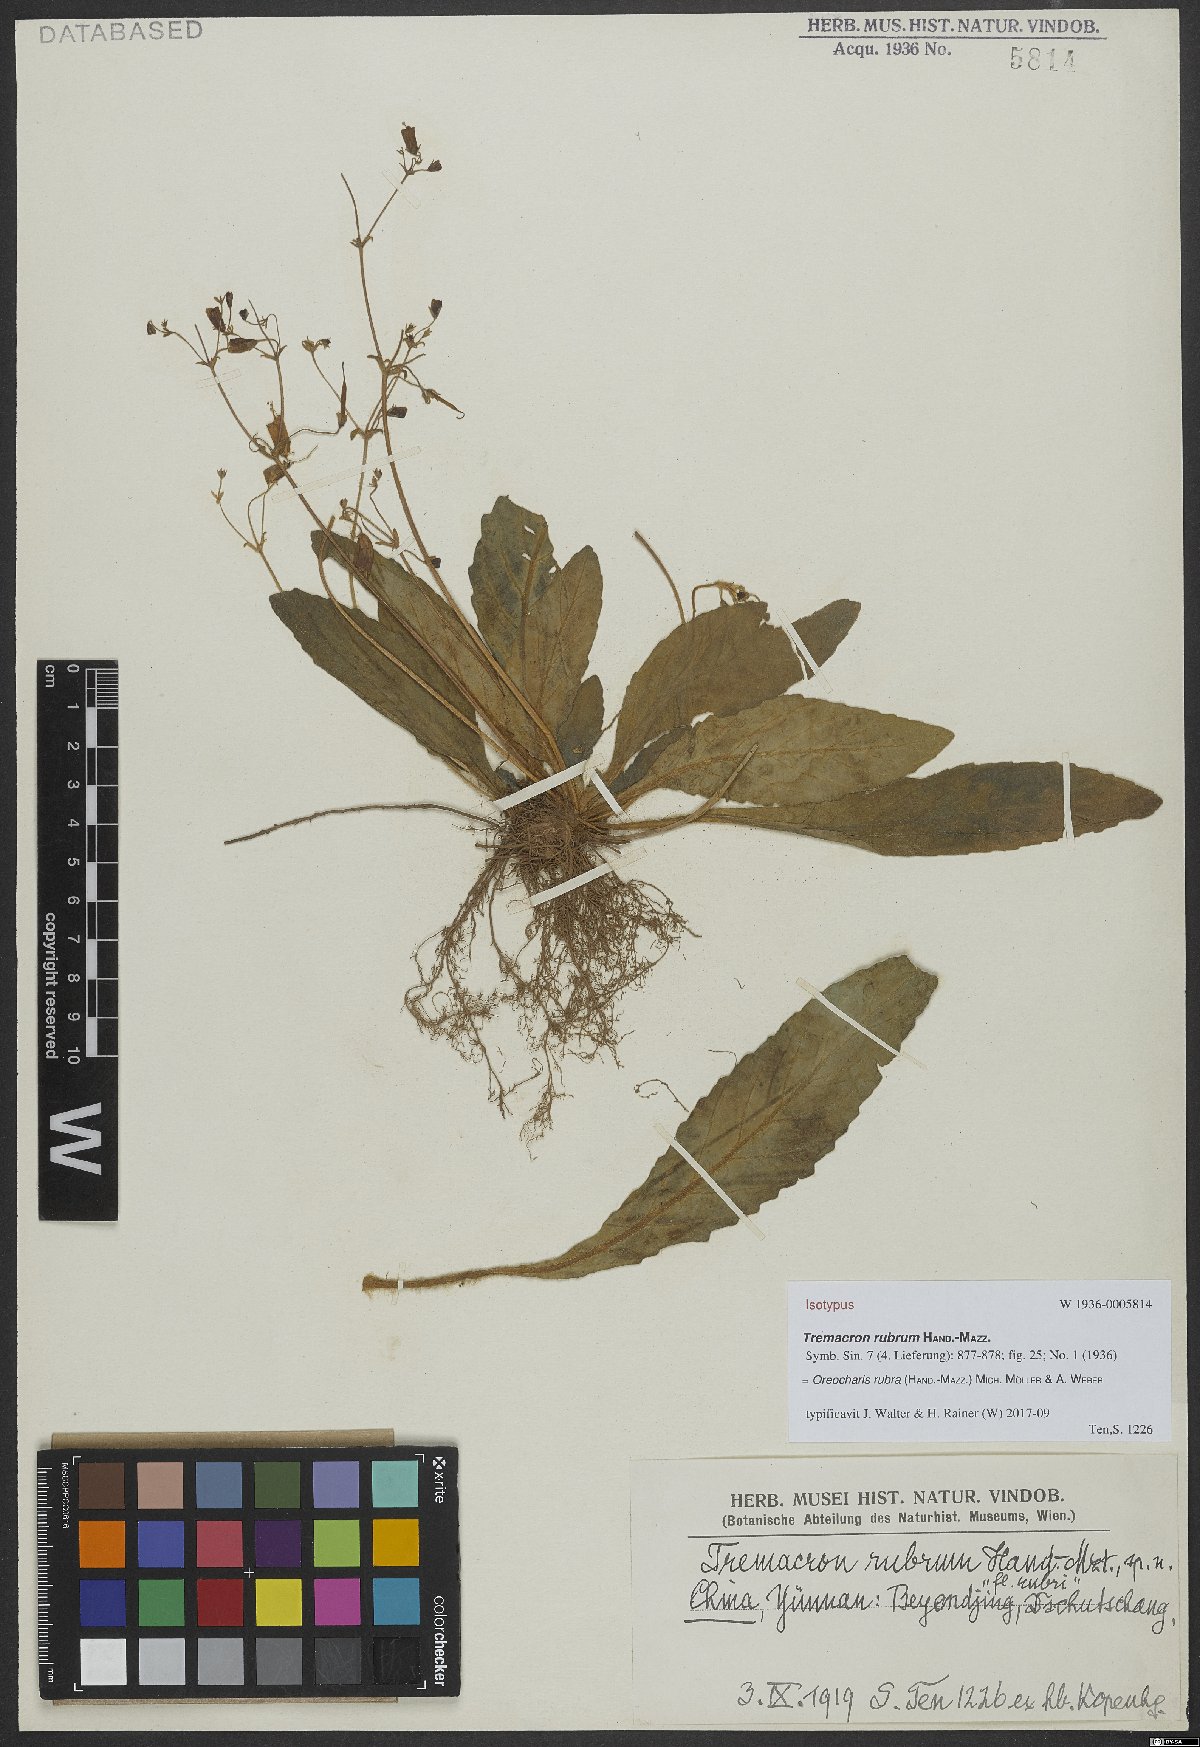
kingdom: Plantae
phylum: Tracheophyta
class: Magnoliopsida
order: Lamiales
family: Gesneriaceae
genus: Oreocharis
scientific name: Oreocharis rubra
